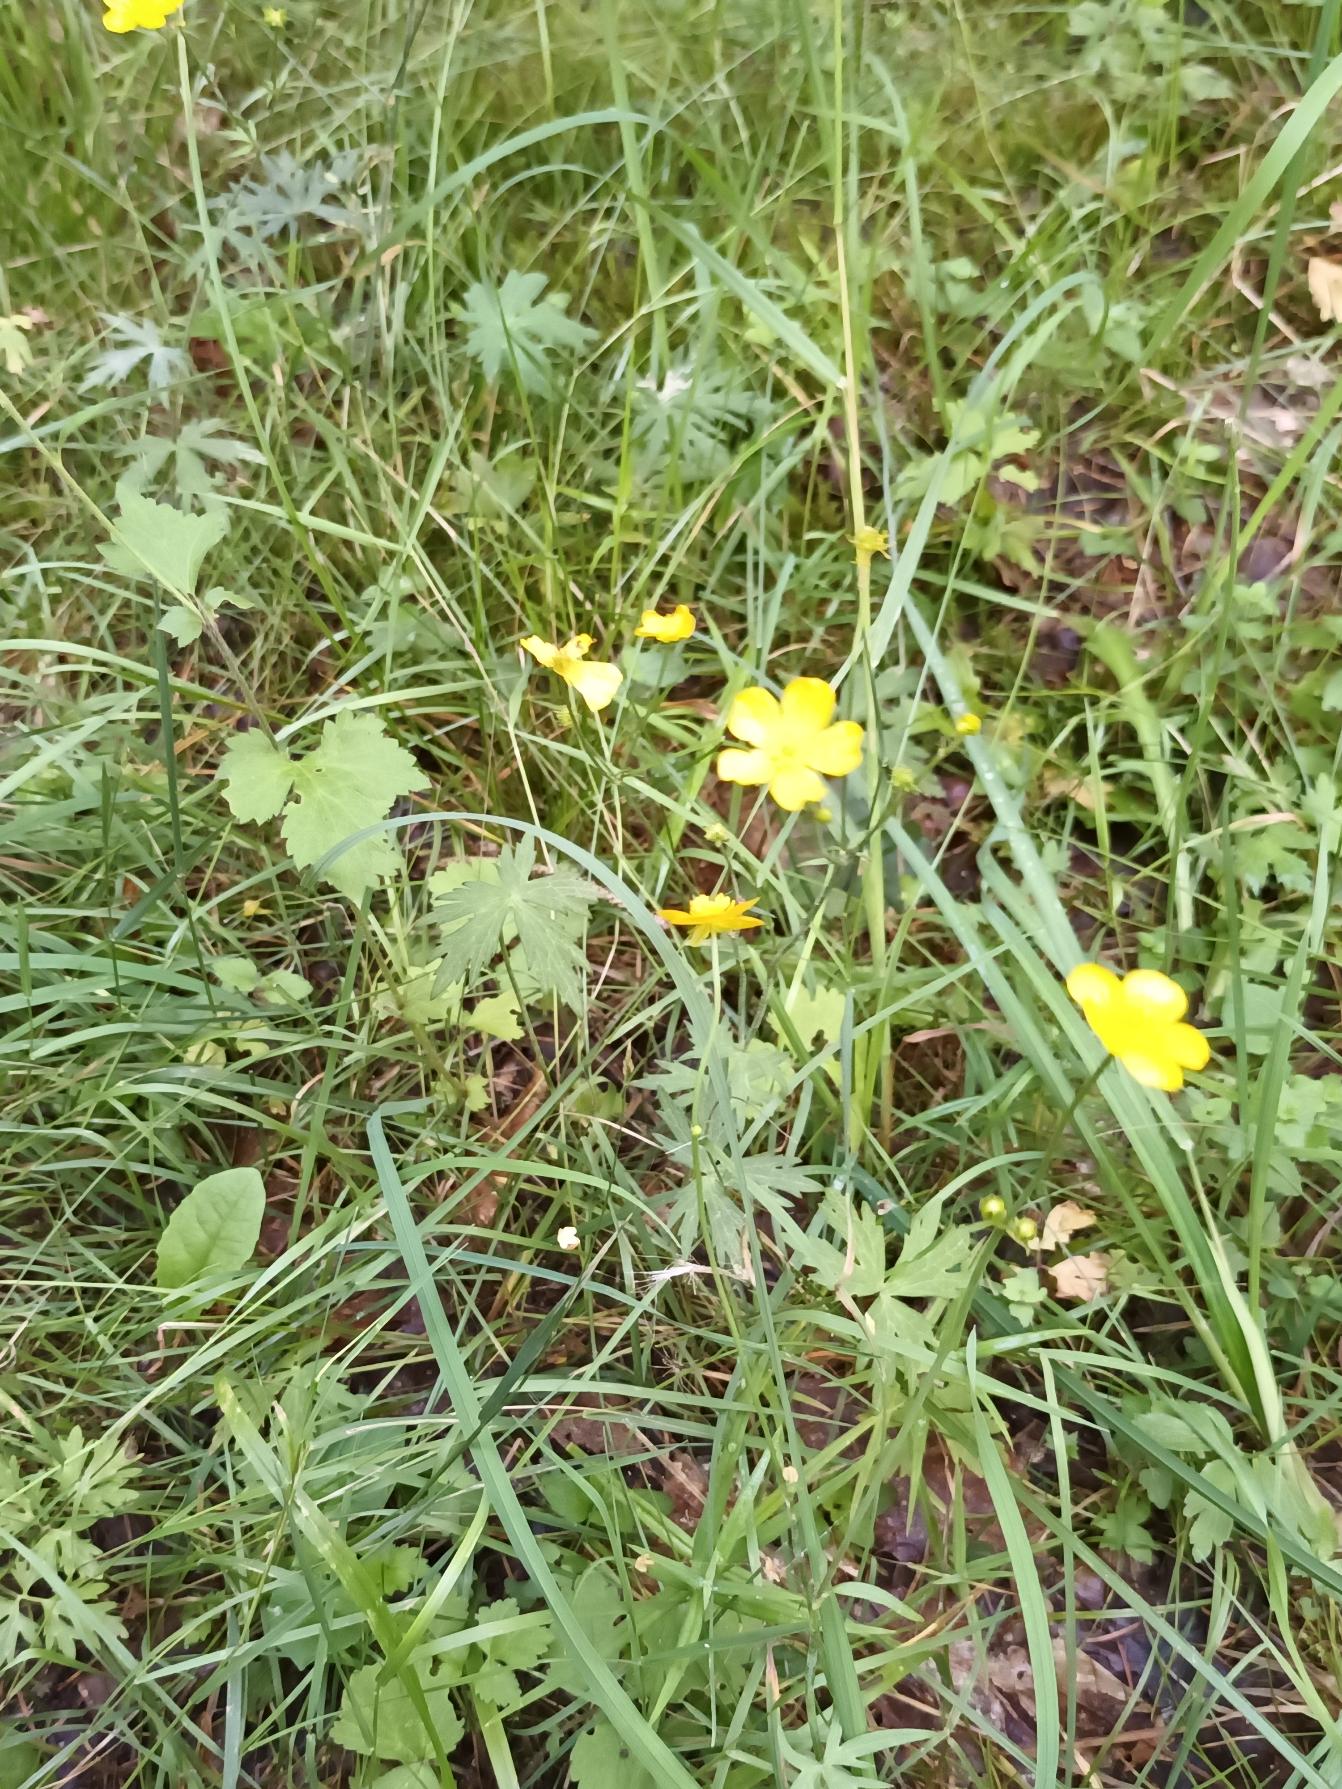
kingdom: Plantae
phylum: Tracheophyta
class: Magnoliopsida
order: Ranunculales
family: Ranunculaceae
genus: Ranunculus
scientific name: Ranunculus acris
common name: Bidende ranunkel
